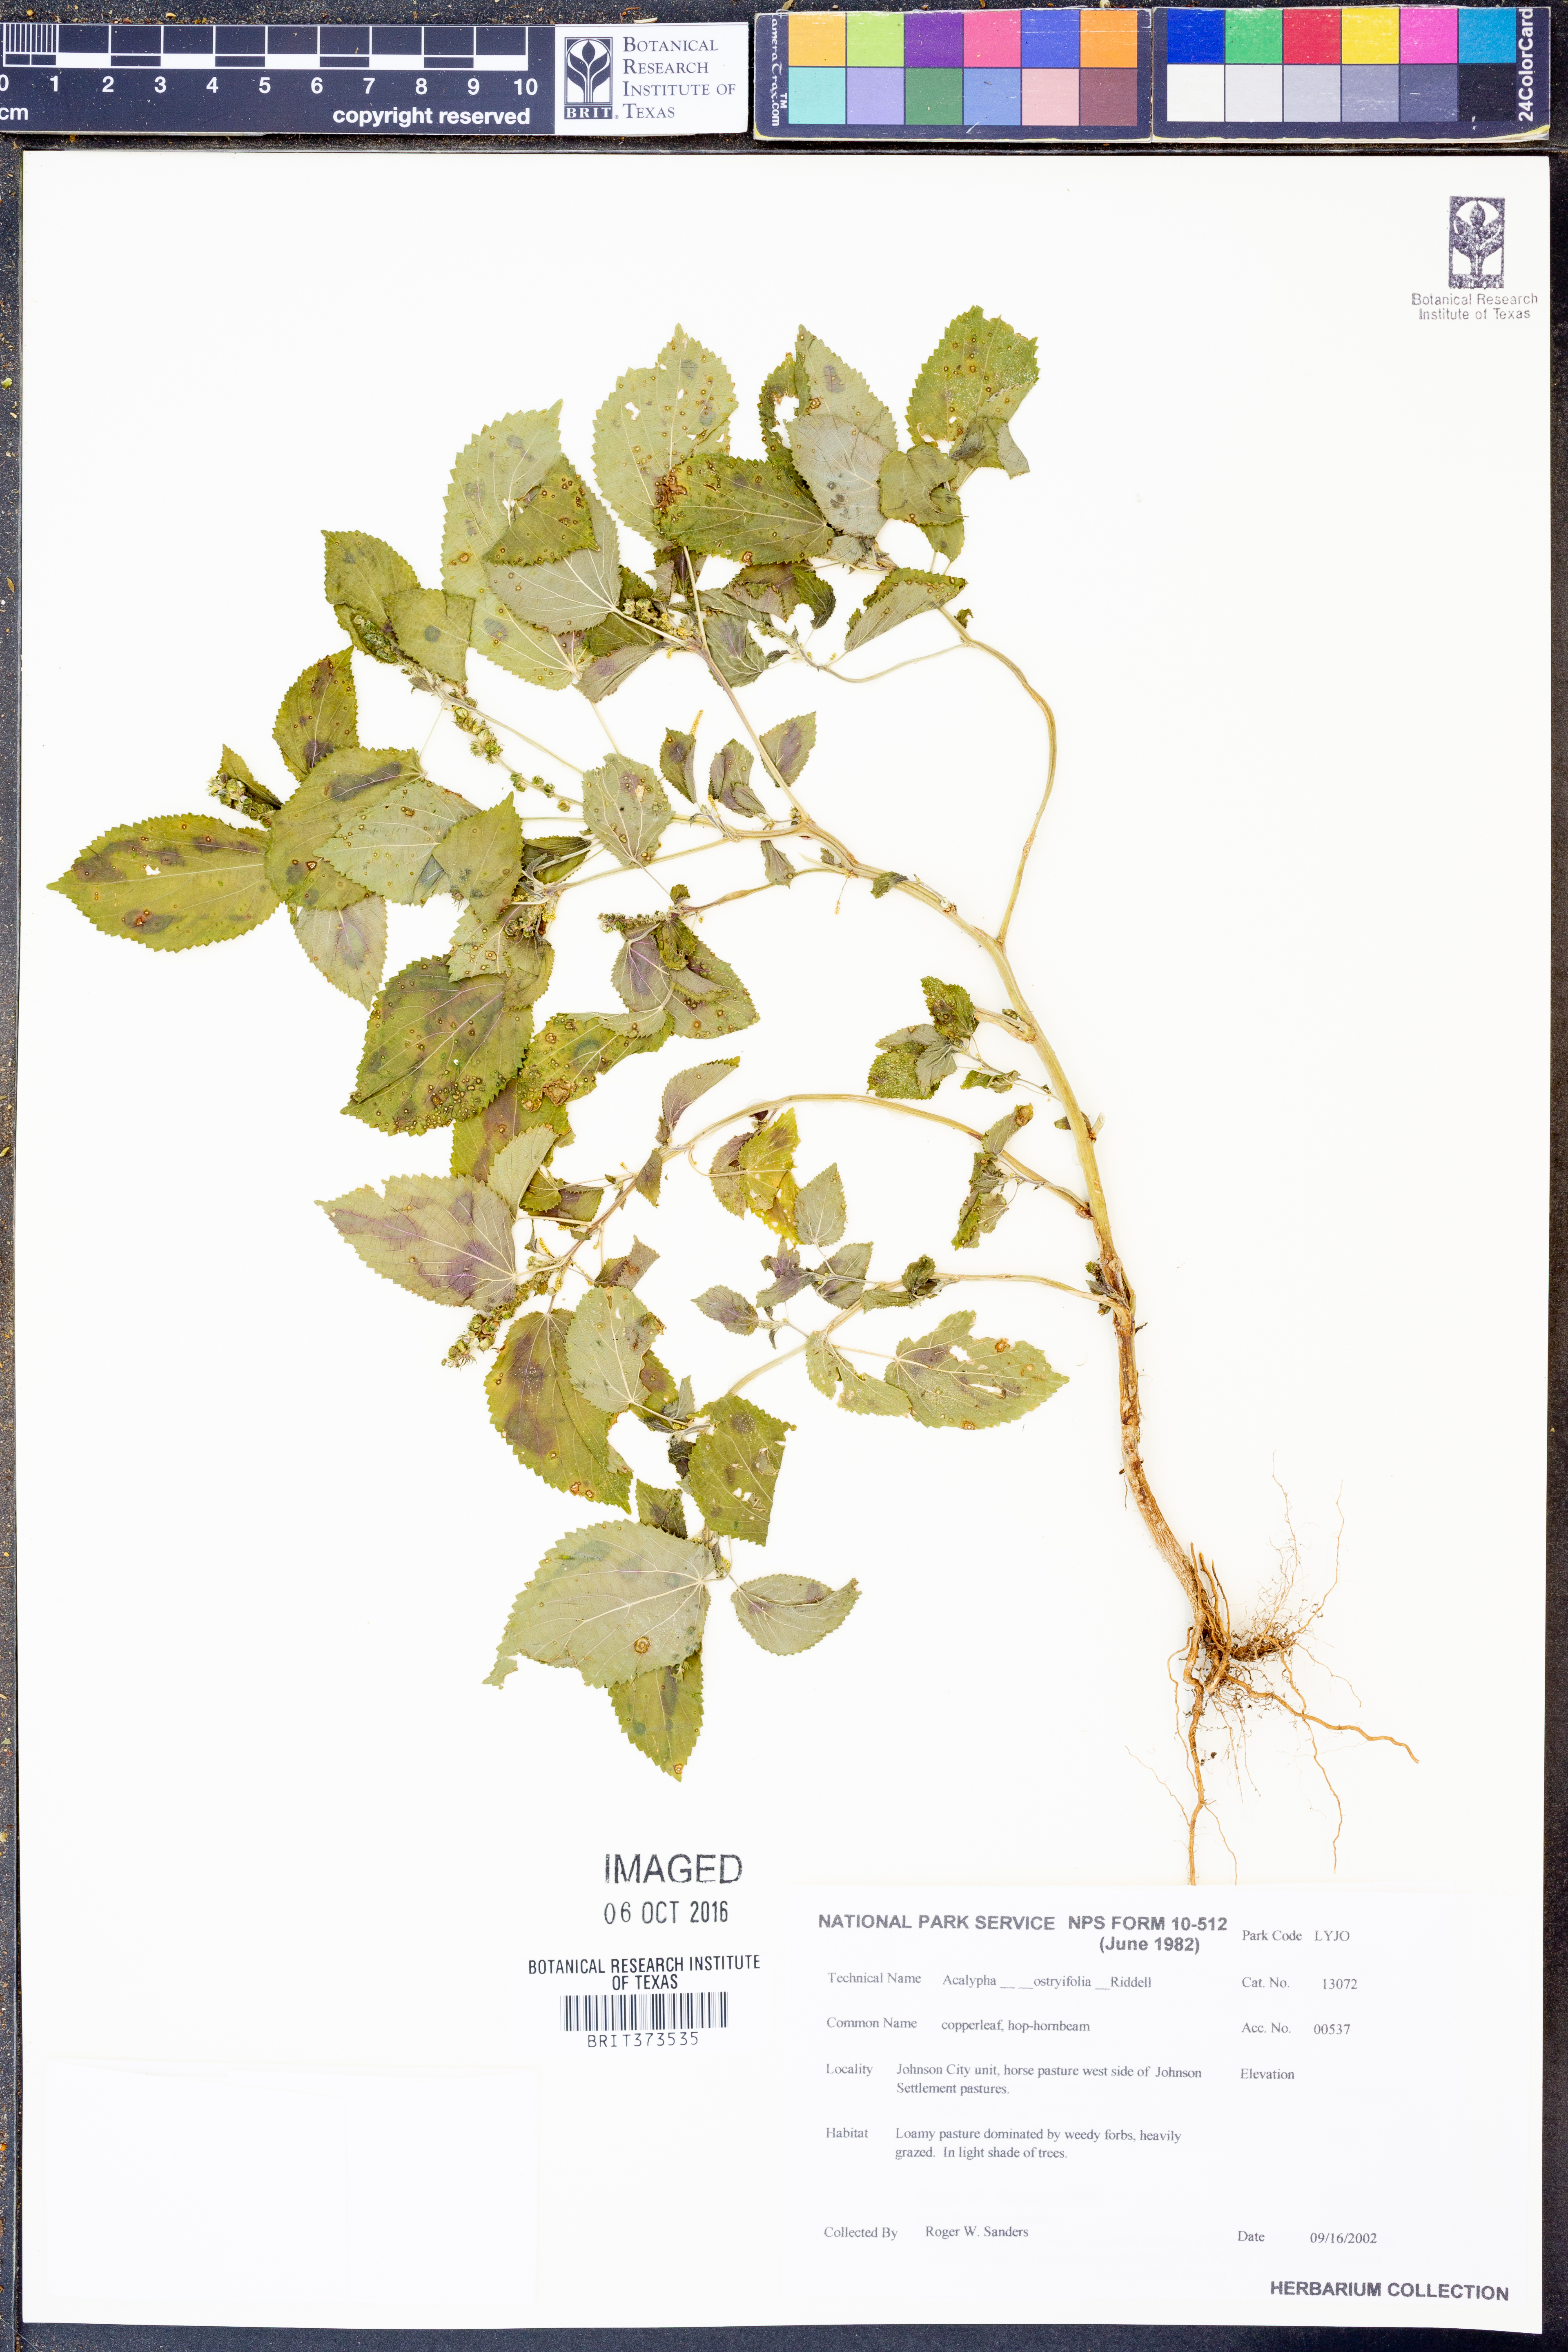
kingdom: Plantae
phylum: Tracheophyta
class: Magnoliopsida
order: Malpighiales
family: Euphorbiaceae
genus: Acalypha
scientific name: Acalypha persimilis
